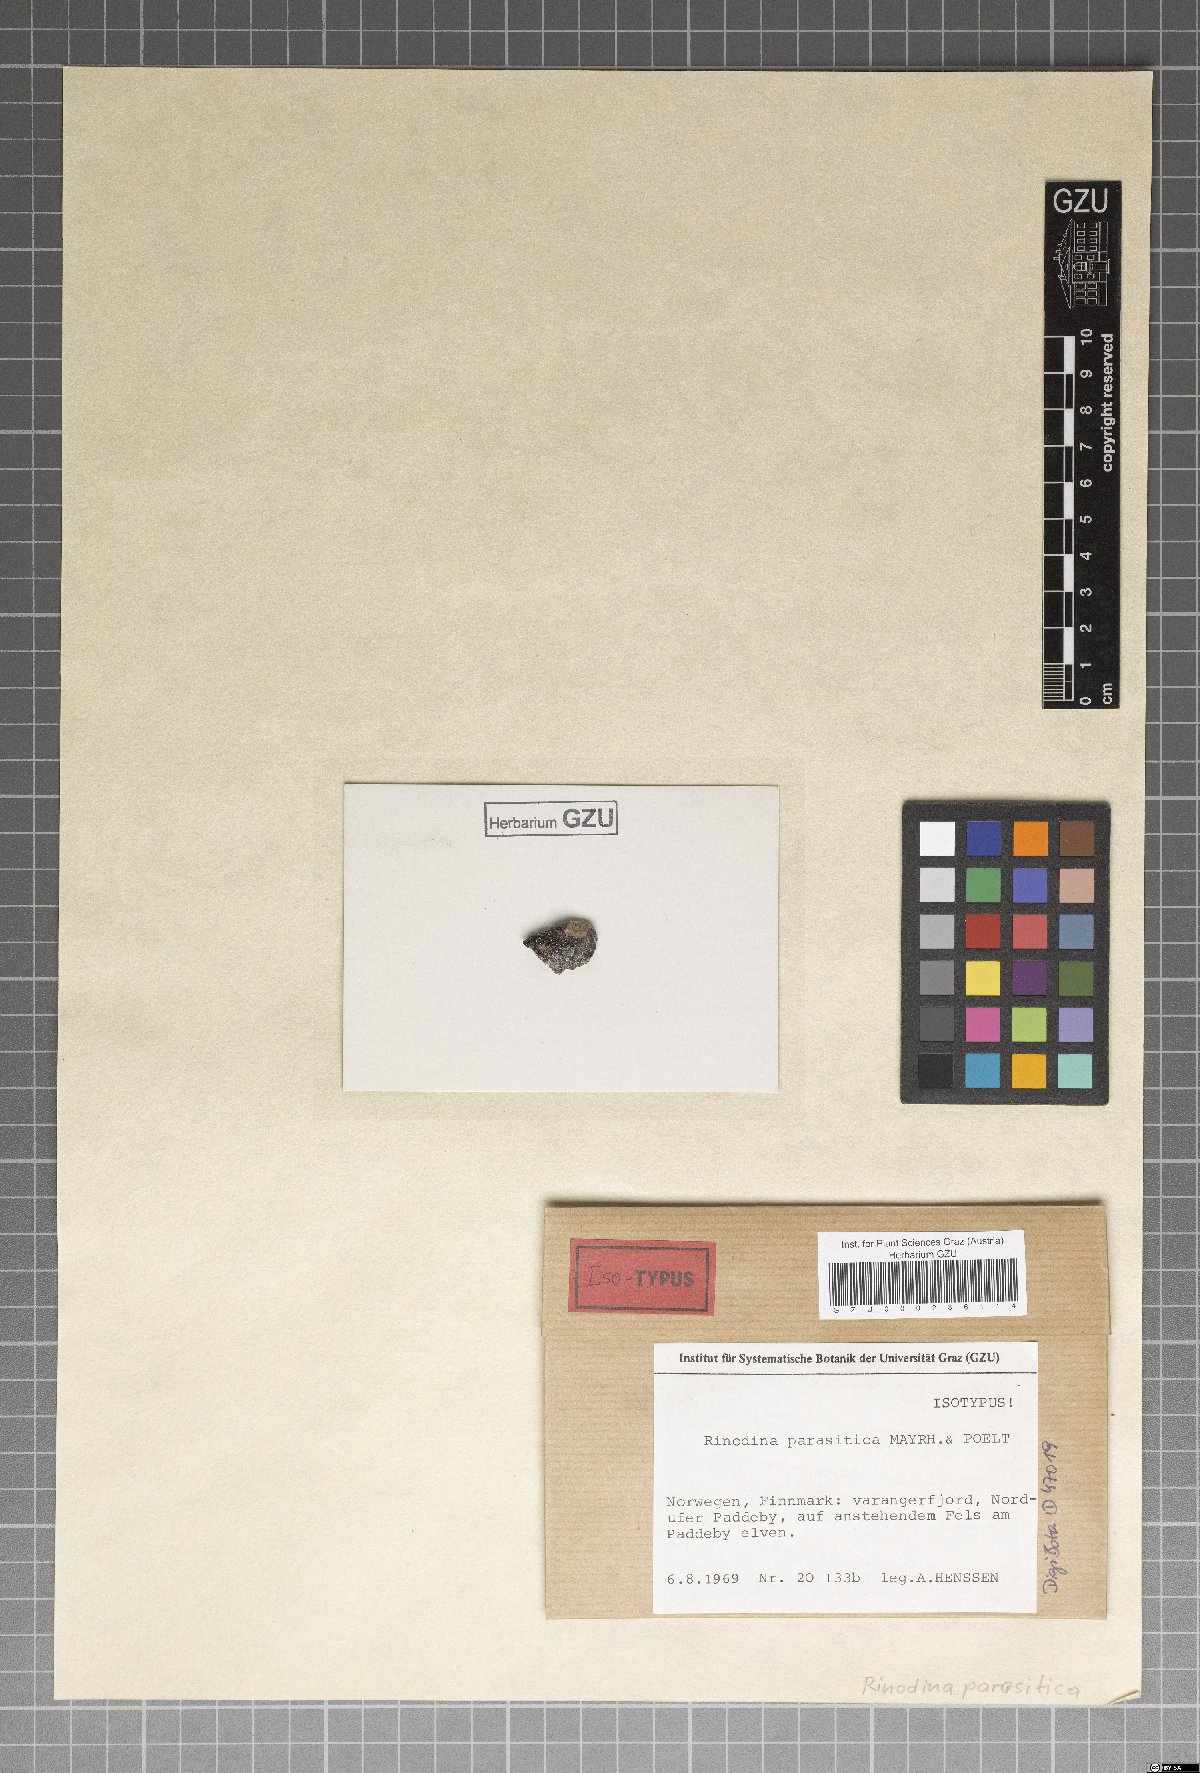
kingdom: Fungi
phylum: Ascomycota
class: Lecanoromycetes
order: Caliciales
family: Physciaceae
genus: Rinodina
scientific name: Rinodina parasitica
